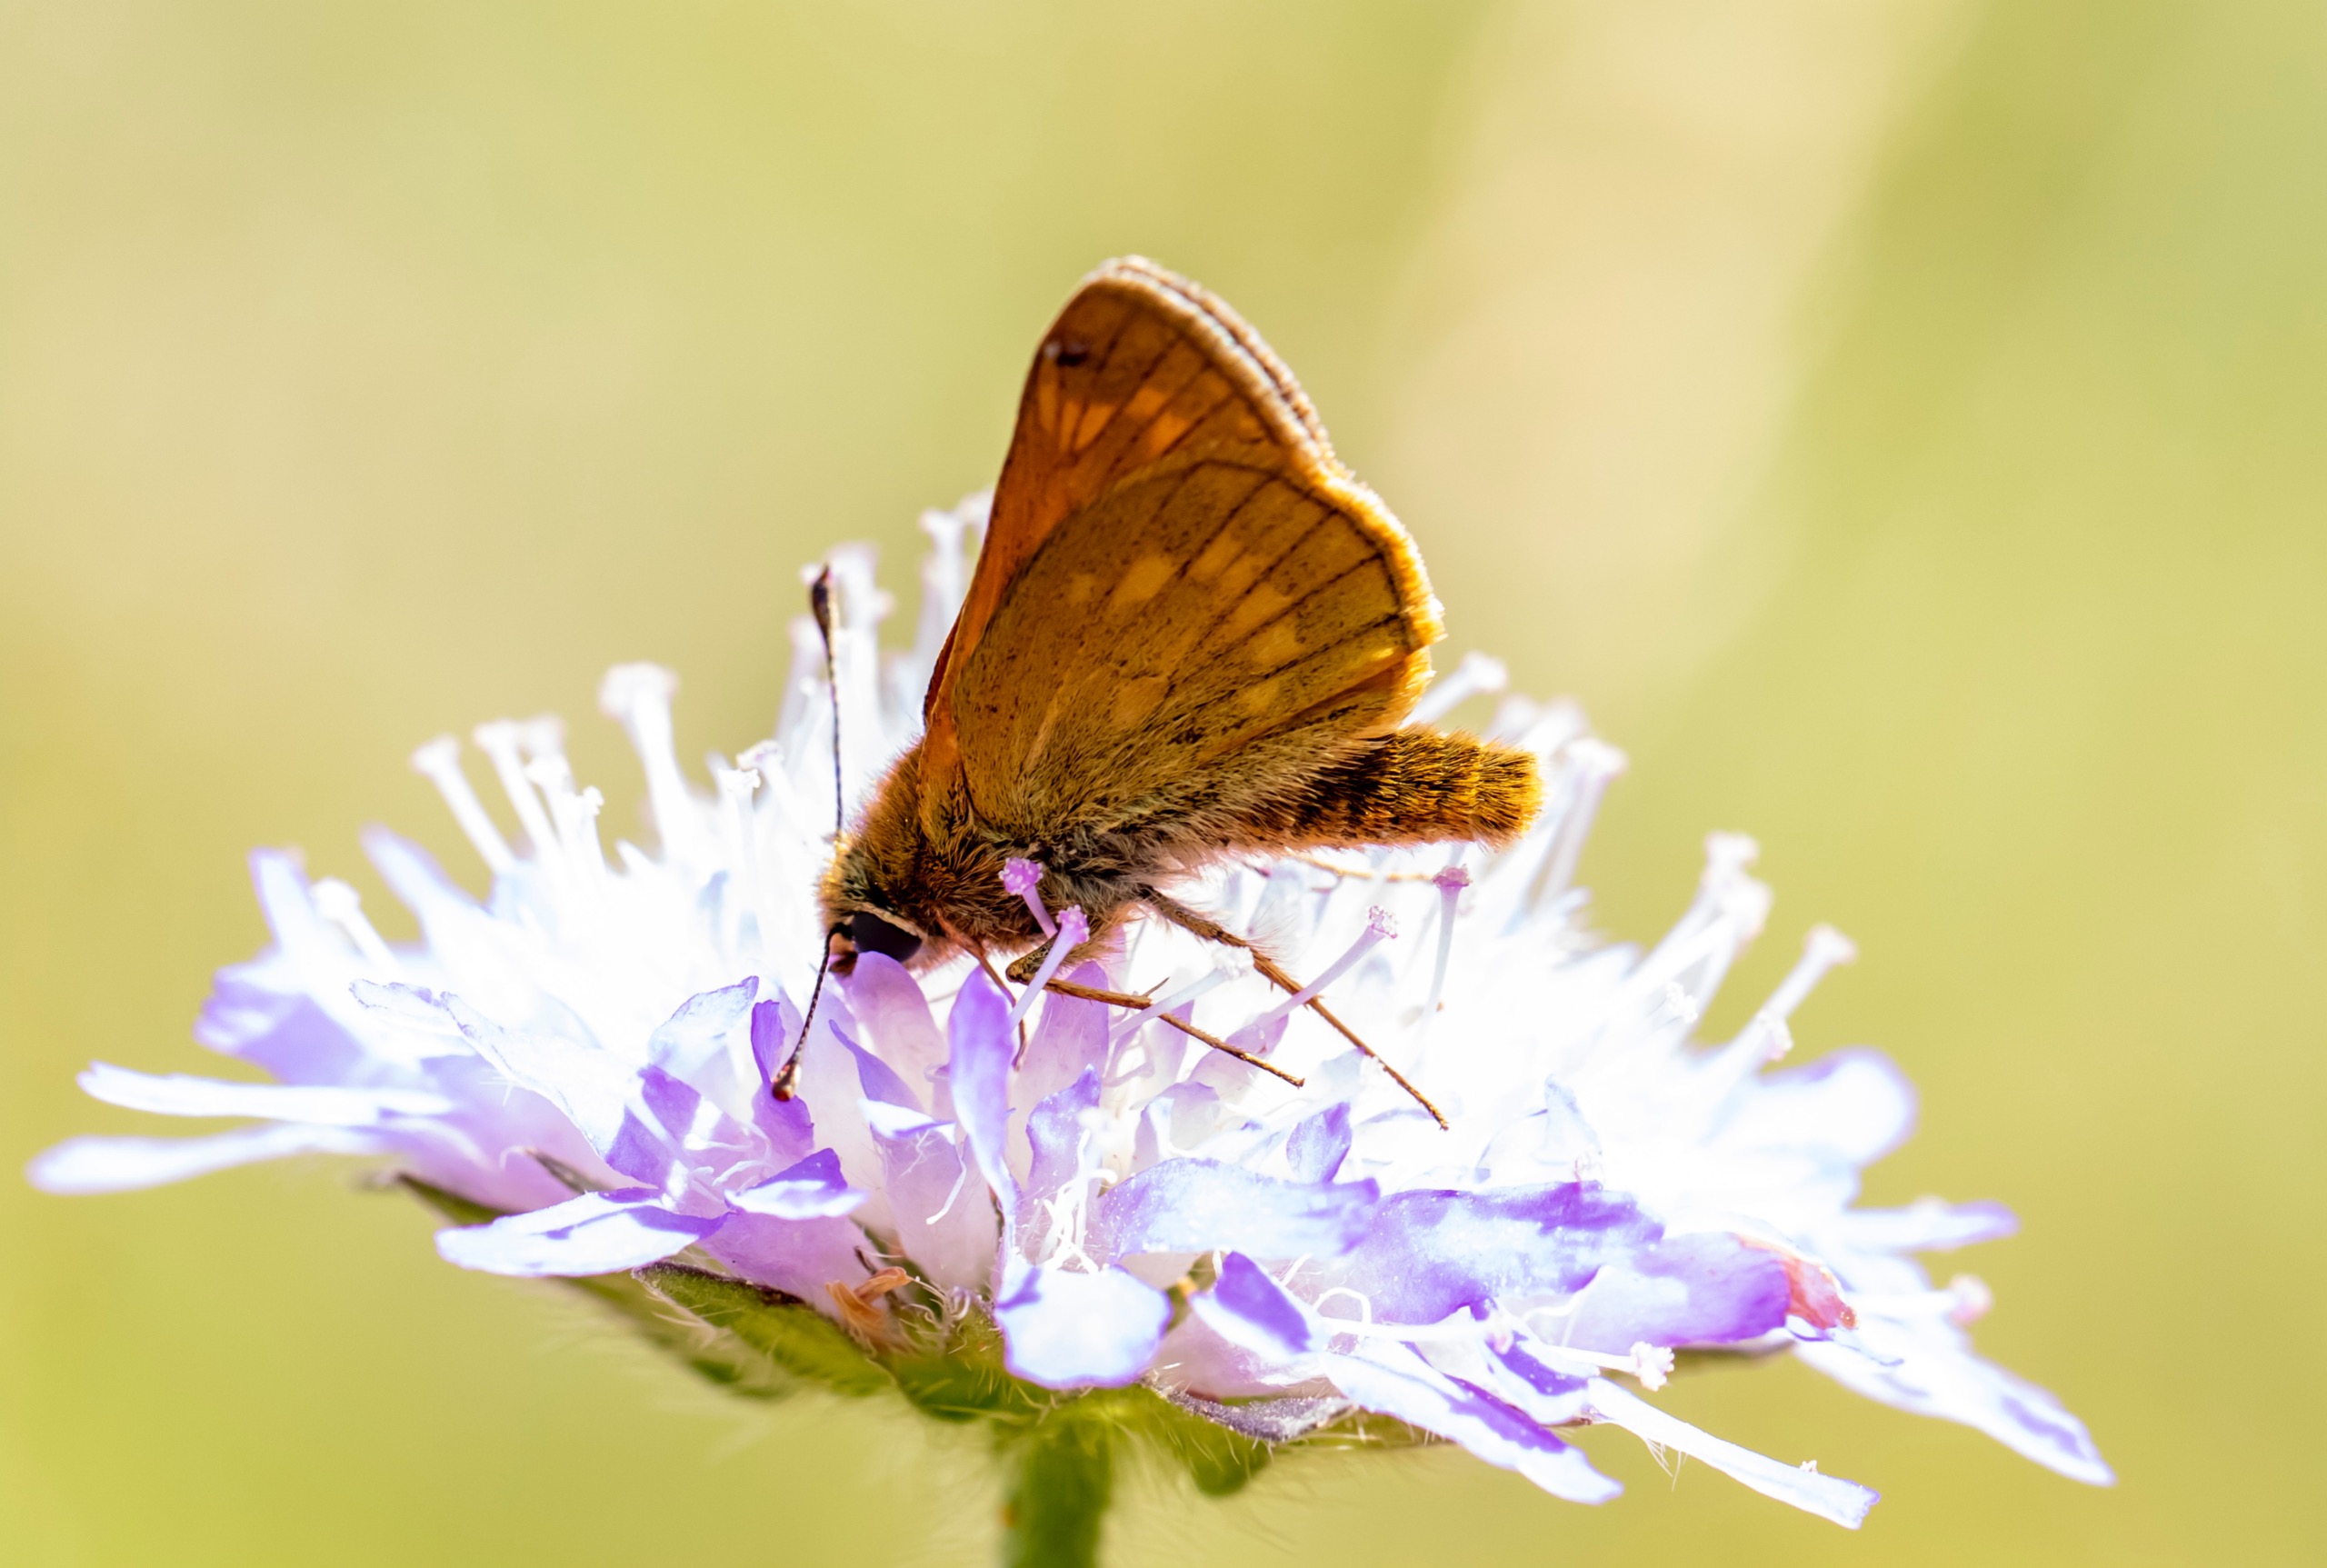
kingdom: Animalia
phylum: Arthropoda
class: Insecta
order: Lepidoptera
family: Hesperiidae
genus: Ochlodes
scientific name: Ochlodes venata
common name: Stor bredpande
